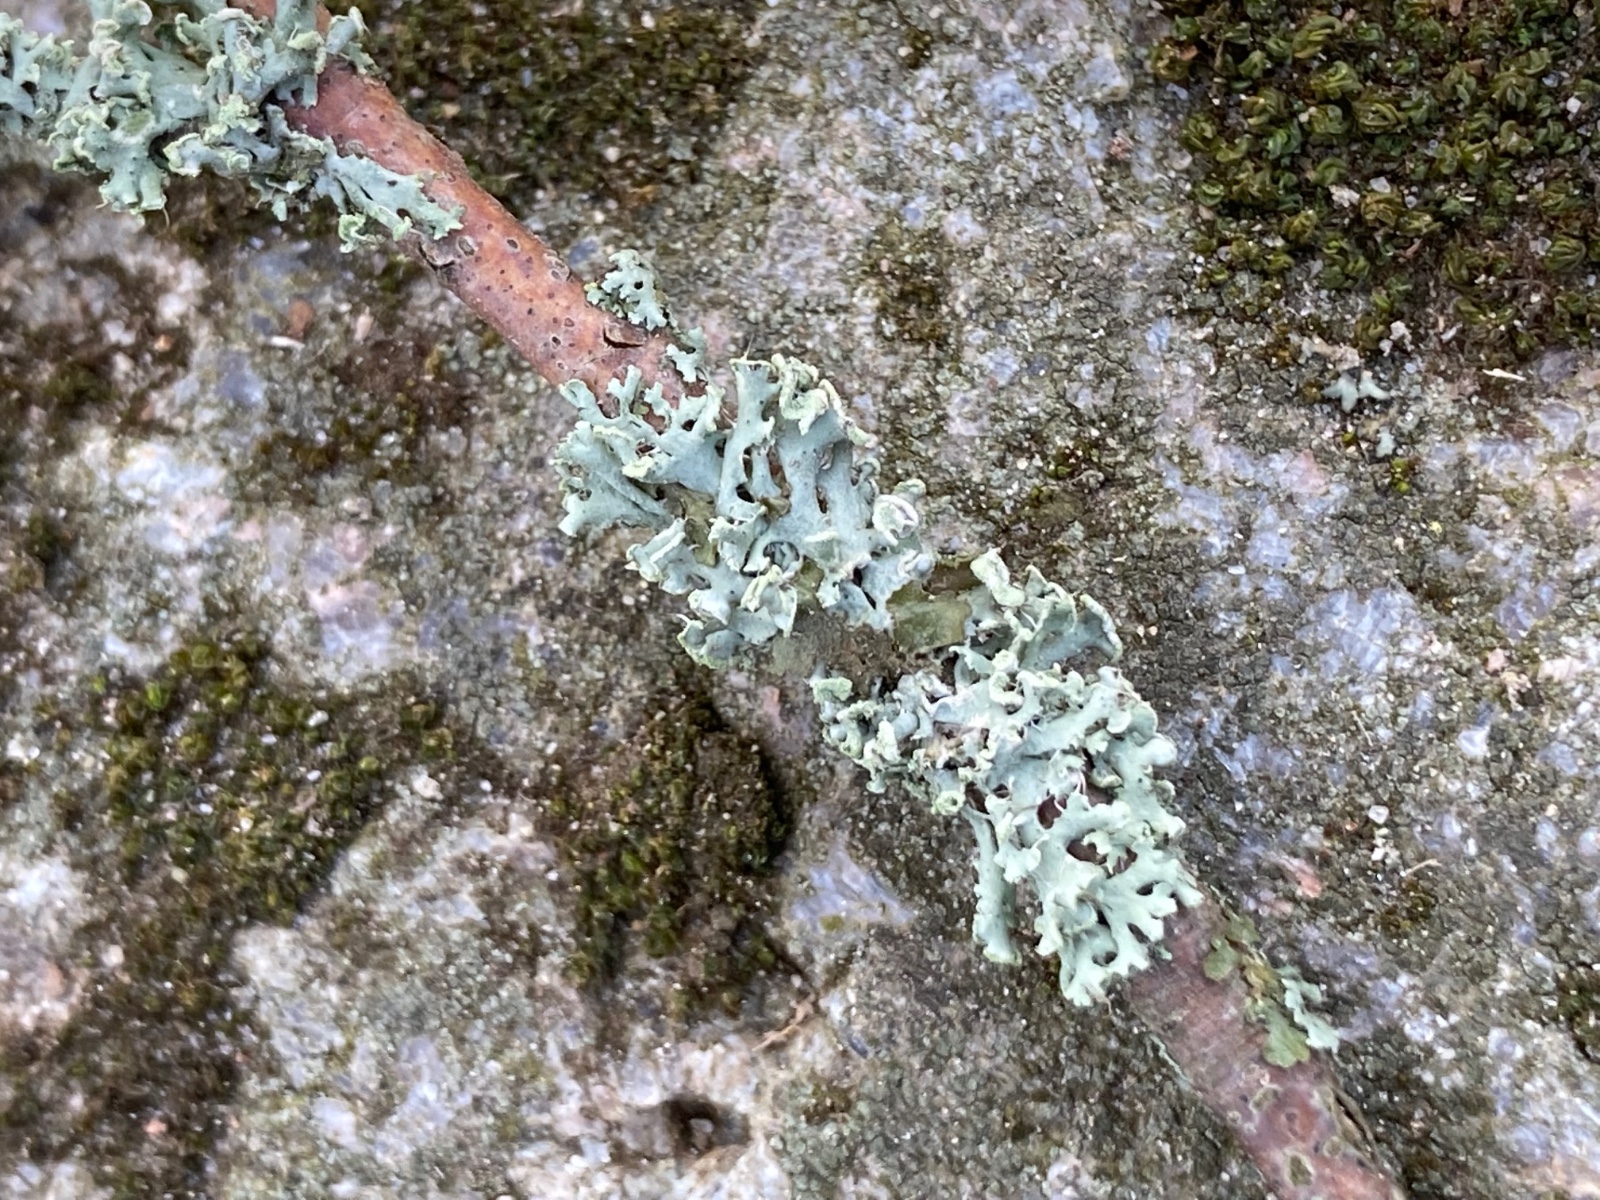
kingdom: Fungi
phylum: Ascomycota
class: Lecanoromycetes
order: Caliciales
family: Physciaceae
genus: Physcia
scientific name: Physcia tenella
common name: spæd rosetlav
